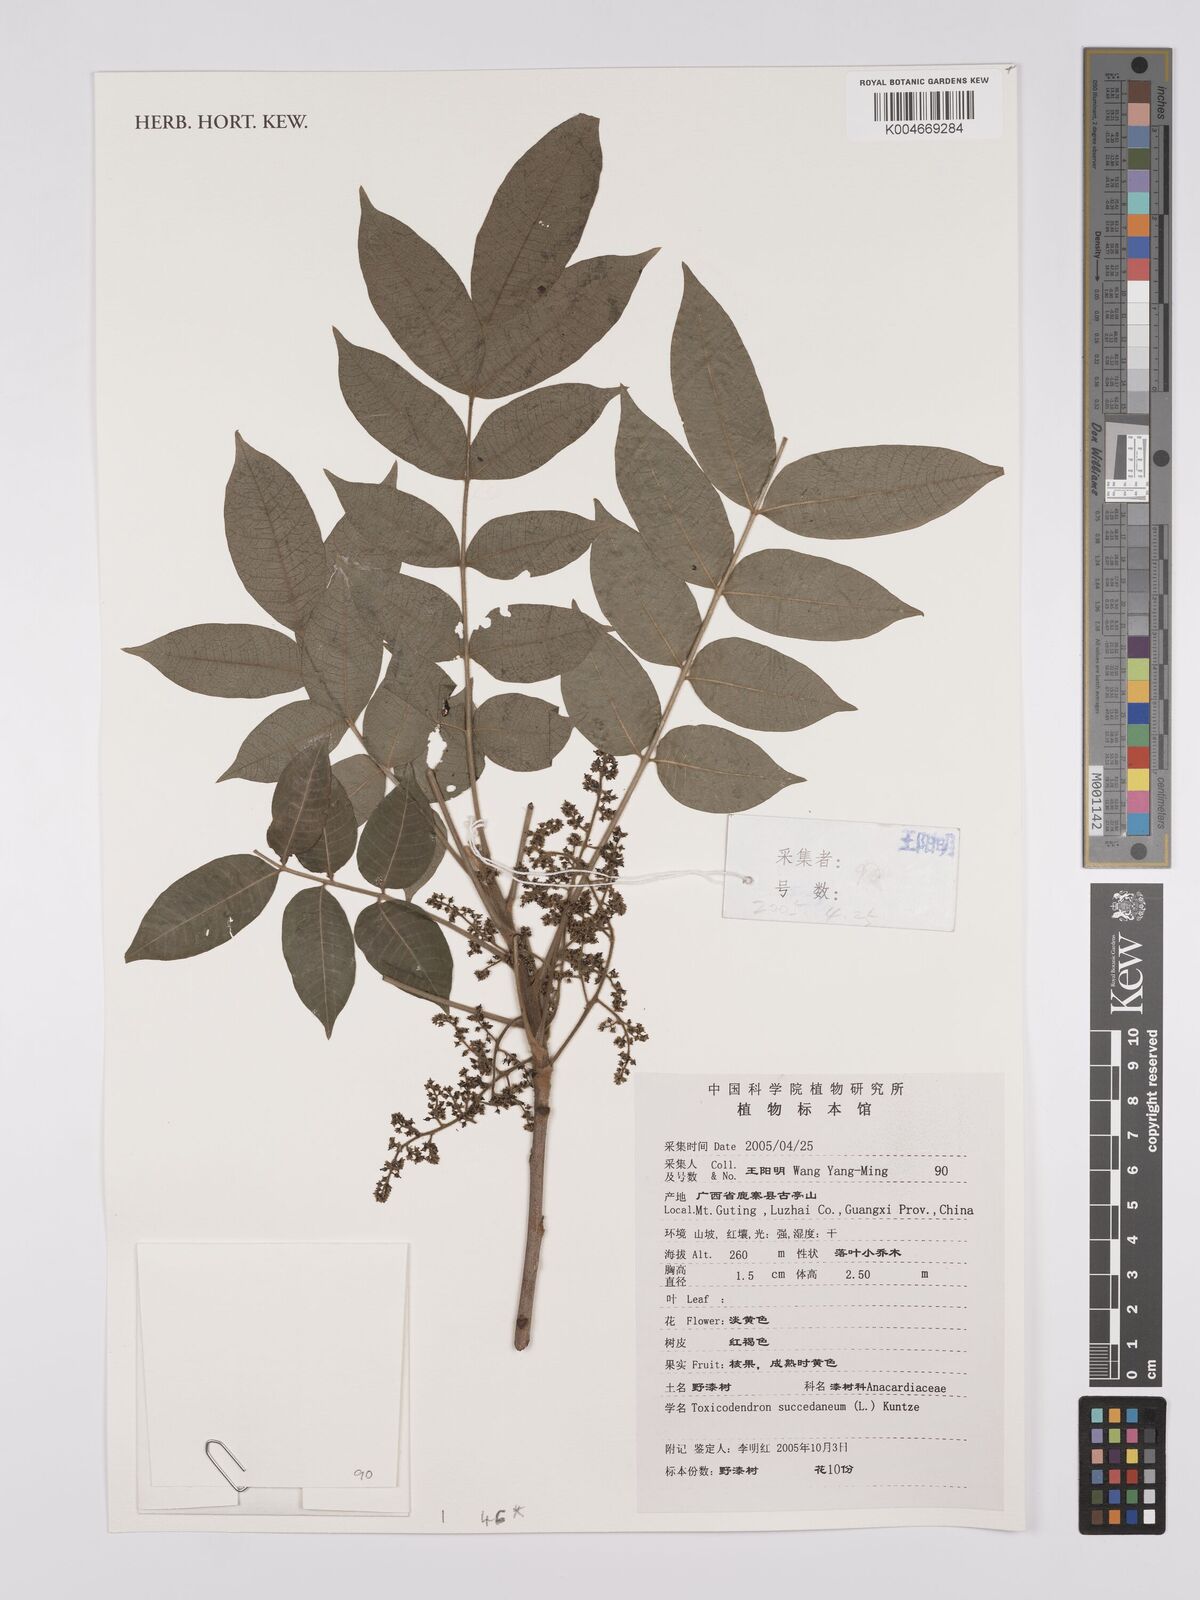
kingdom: Plantae
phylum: Tracheophyta
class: Magnoliopsida
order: Sapindales
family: Anacardiaceae
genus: Toxicodendron
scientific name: Toxicodendron succedaneum
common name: Wax tree
